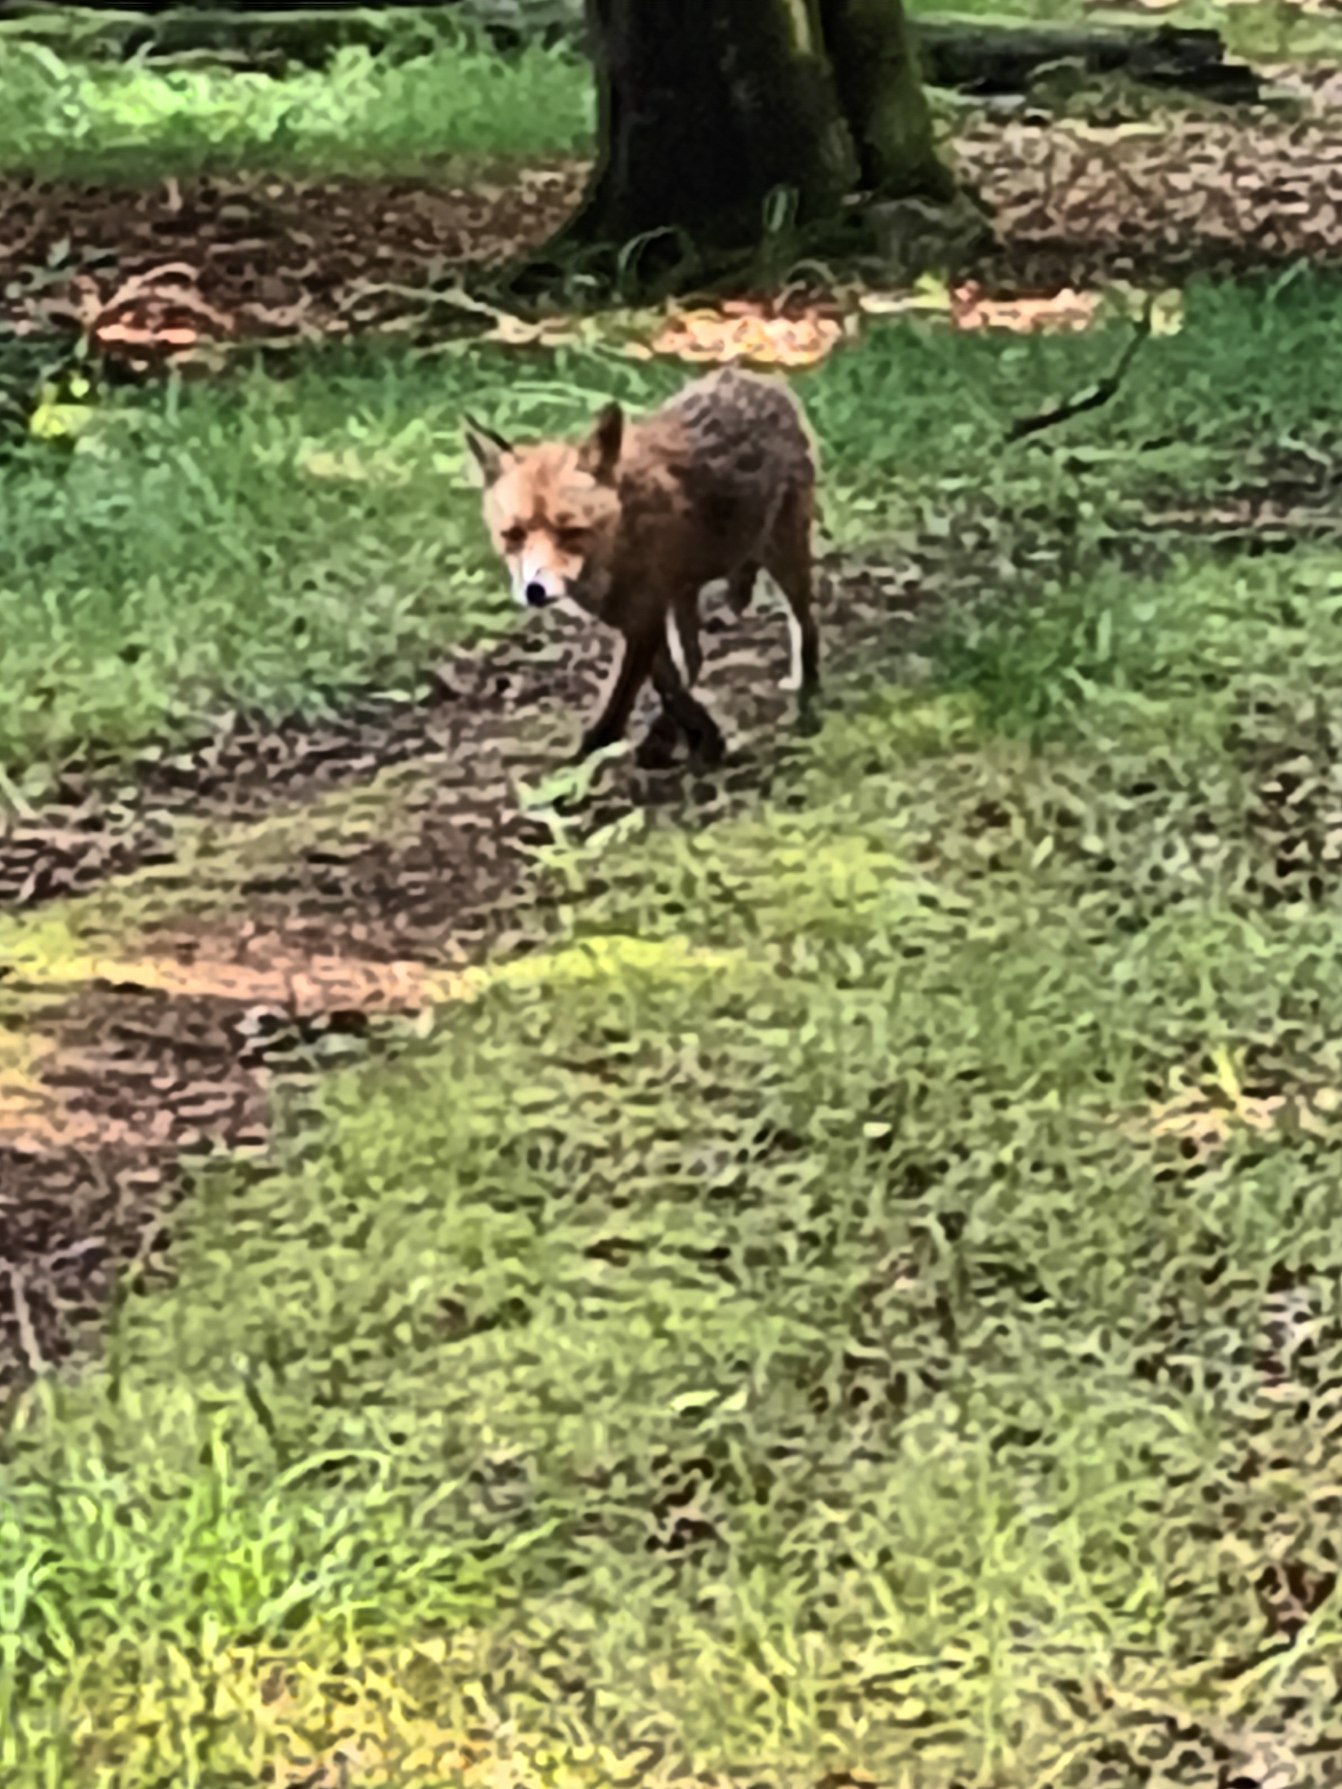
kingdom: Animalia
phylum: Chordata
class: Mammalia
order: Carnivora
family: Canidae
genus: Vulpes
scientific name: Vulpes vulpes
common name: Ræv
